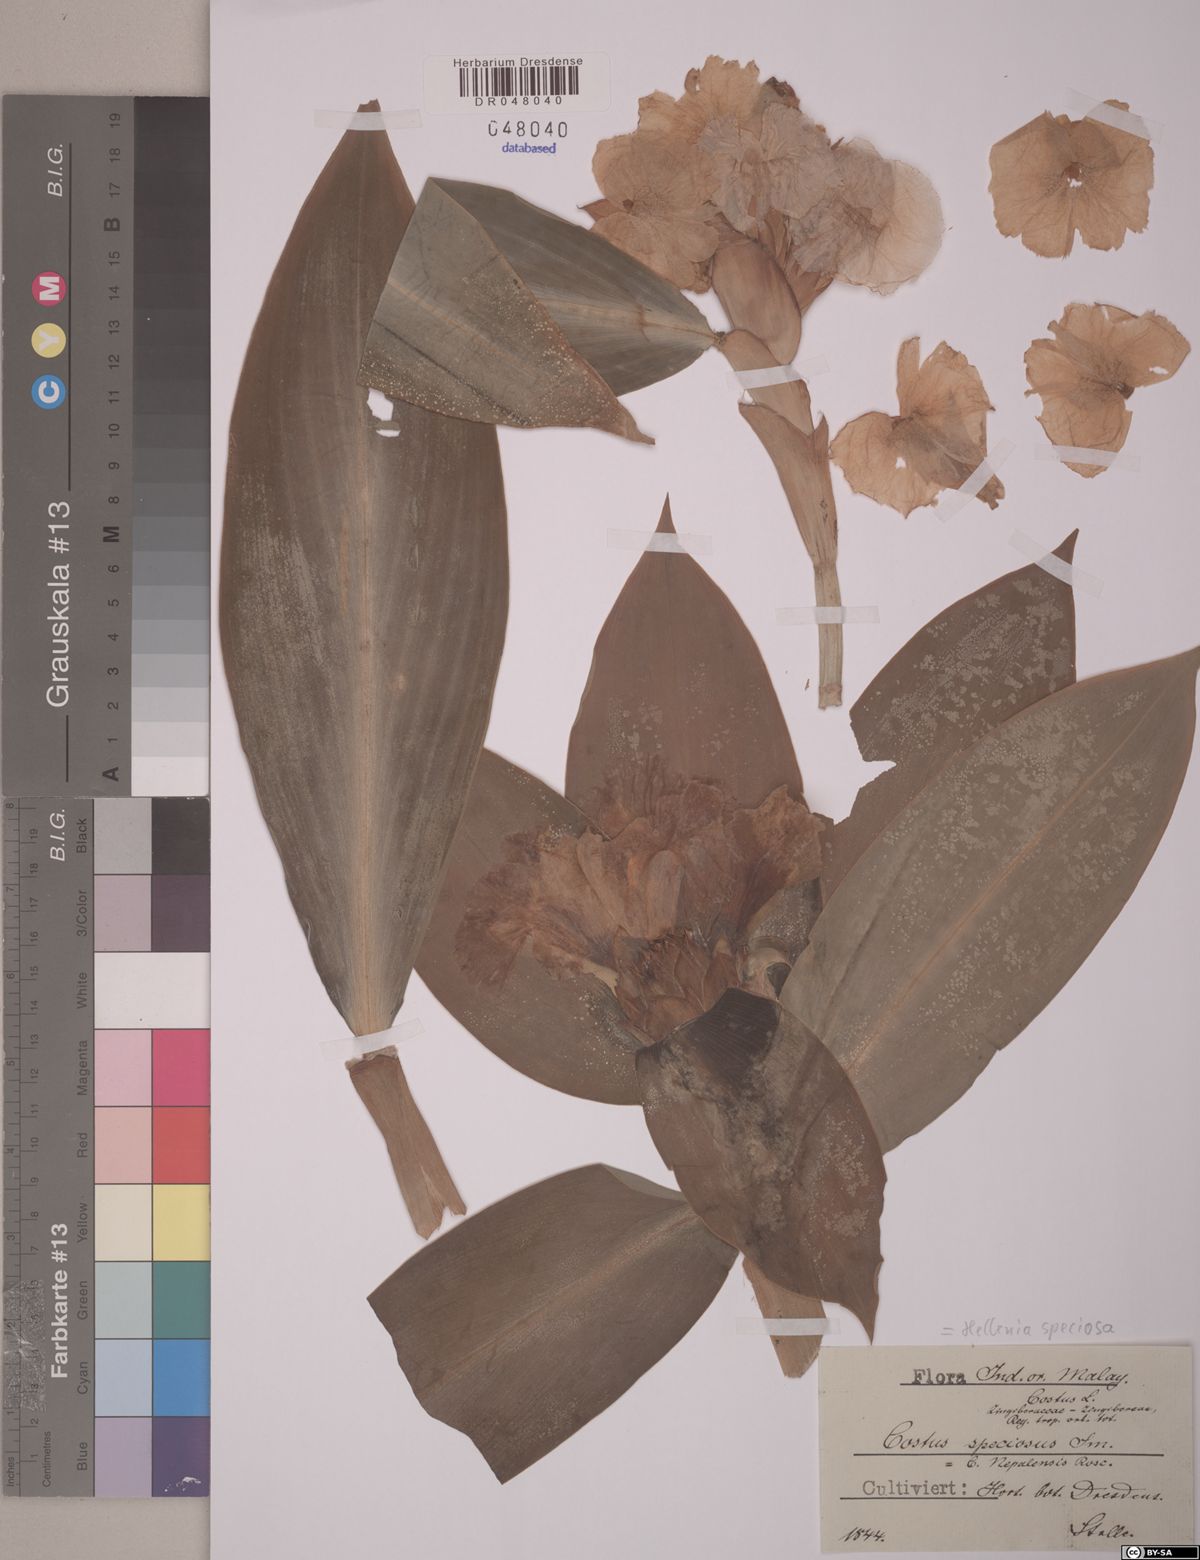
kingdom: Plantae
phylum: Tracheophyta
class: Liliopsida
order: Zingiberales
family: Costaceae
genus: Hellenia
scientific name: Hellenia speciosa
